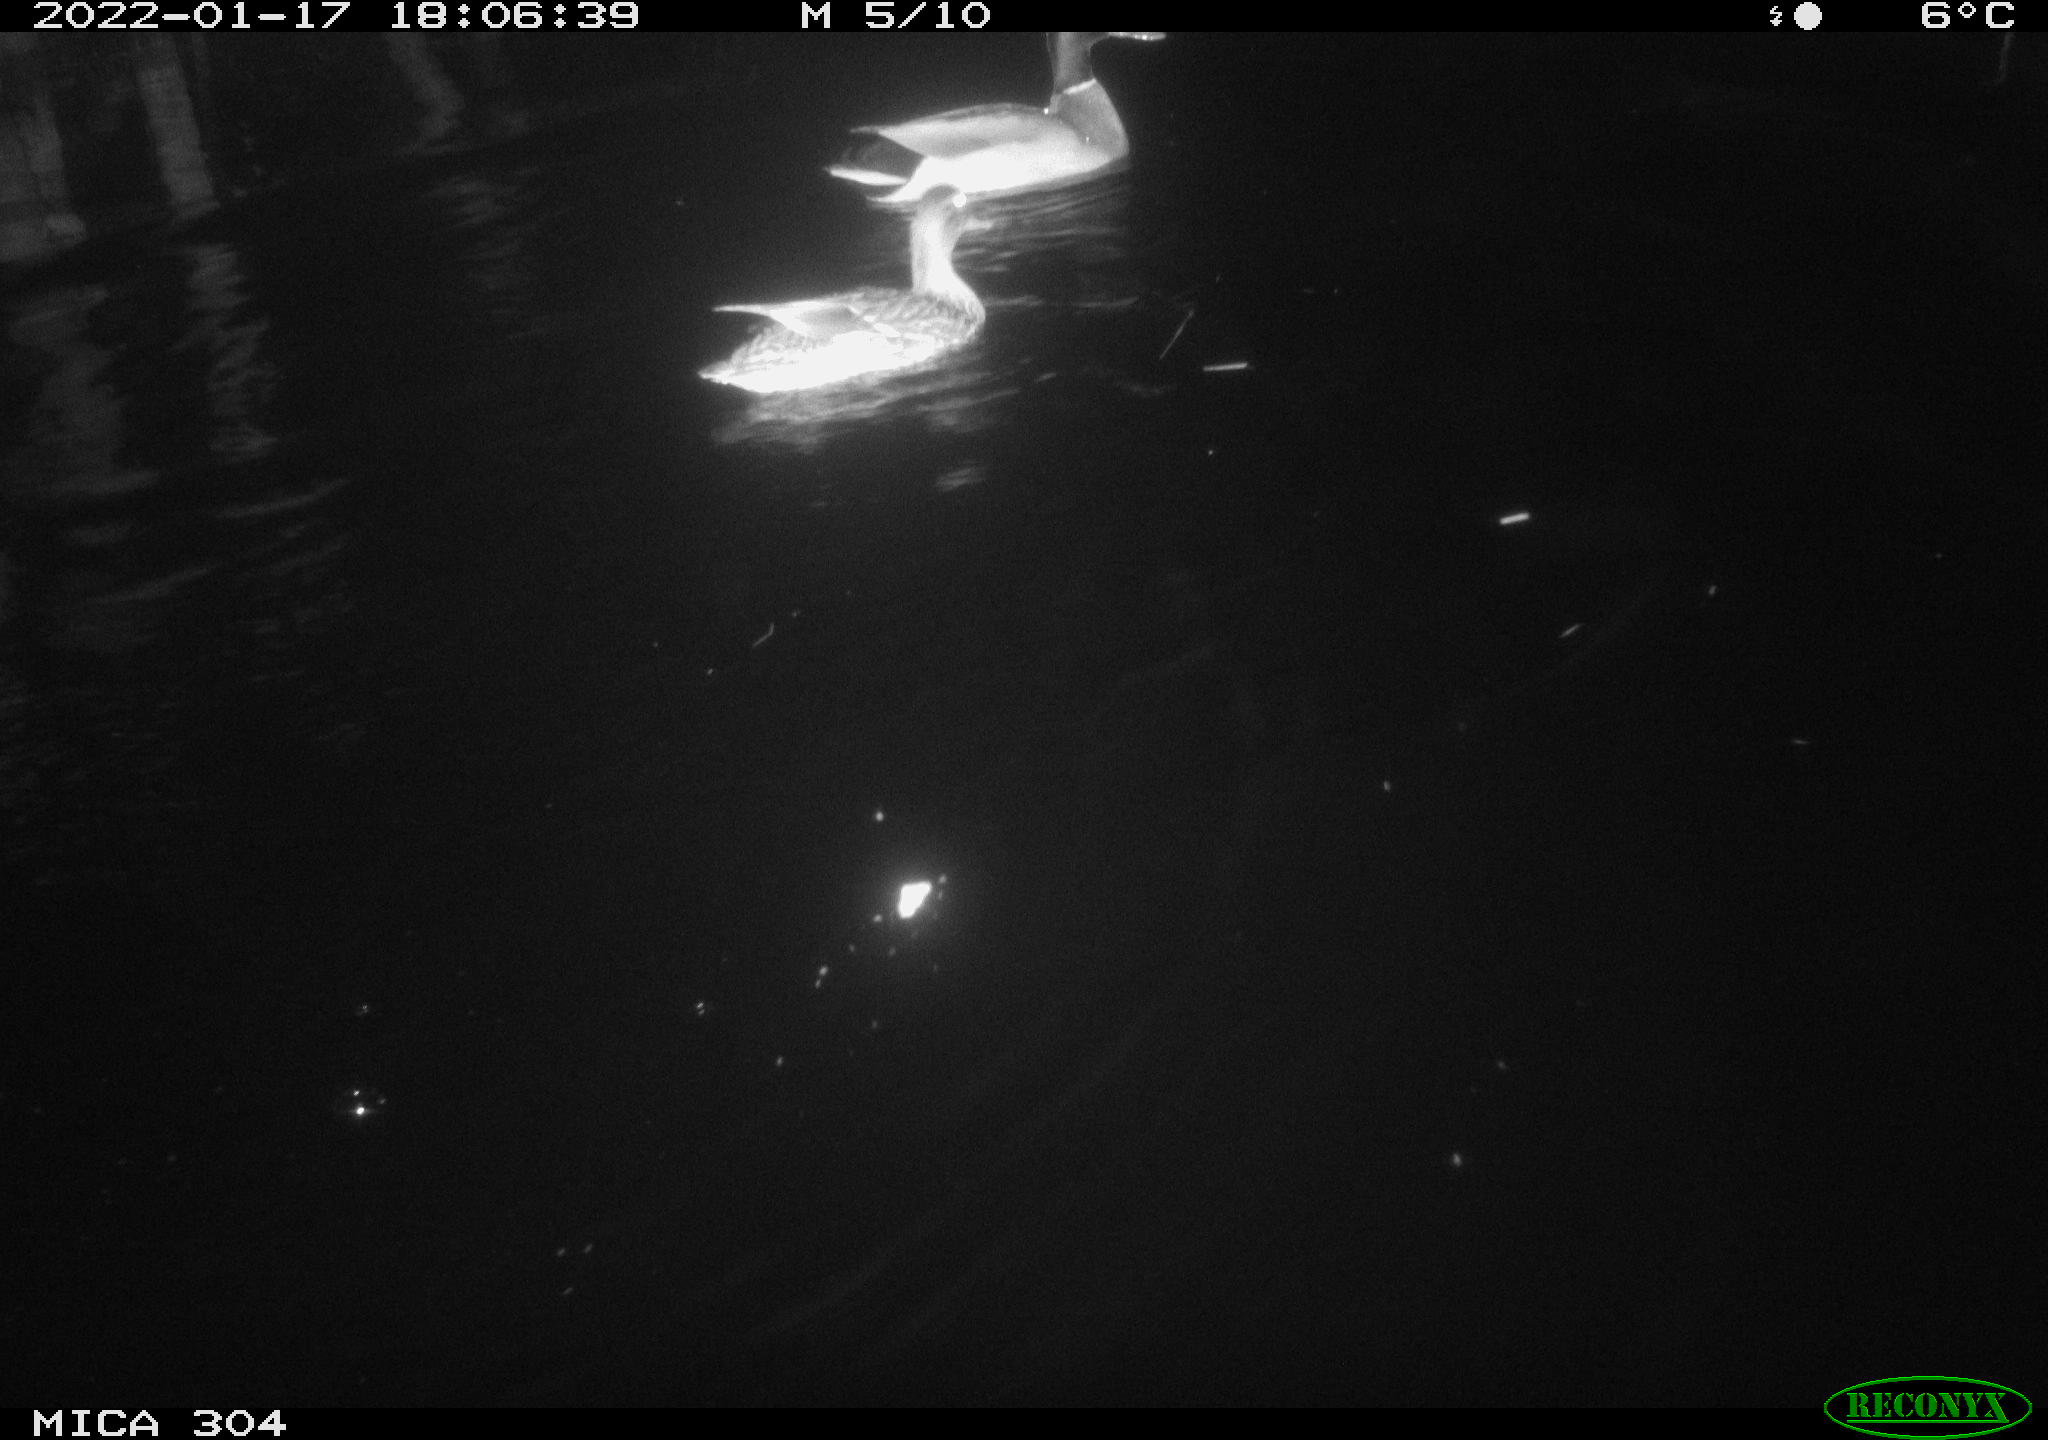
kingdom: Animalia
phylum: Chordata
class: Aves
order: Anseriformes
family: Anatidae
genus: Anas
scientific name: Anas
